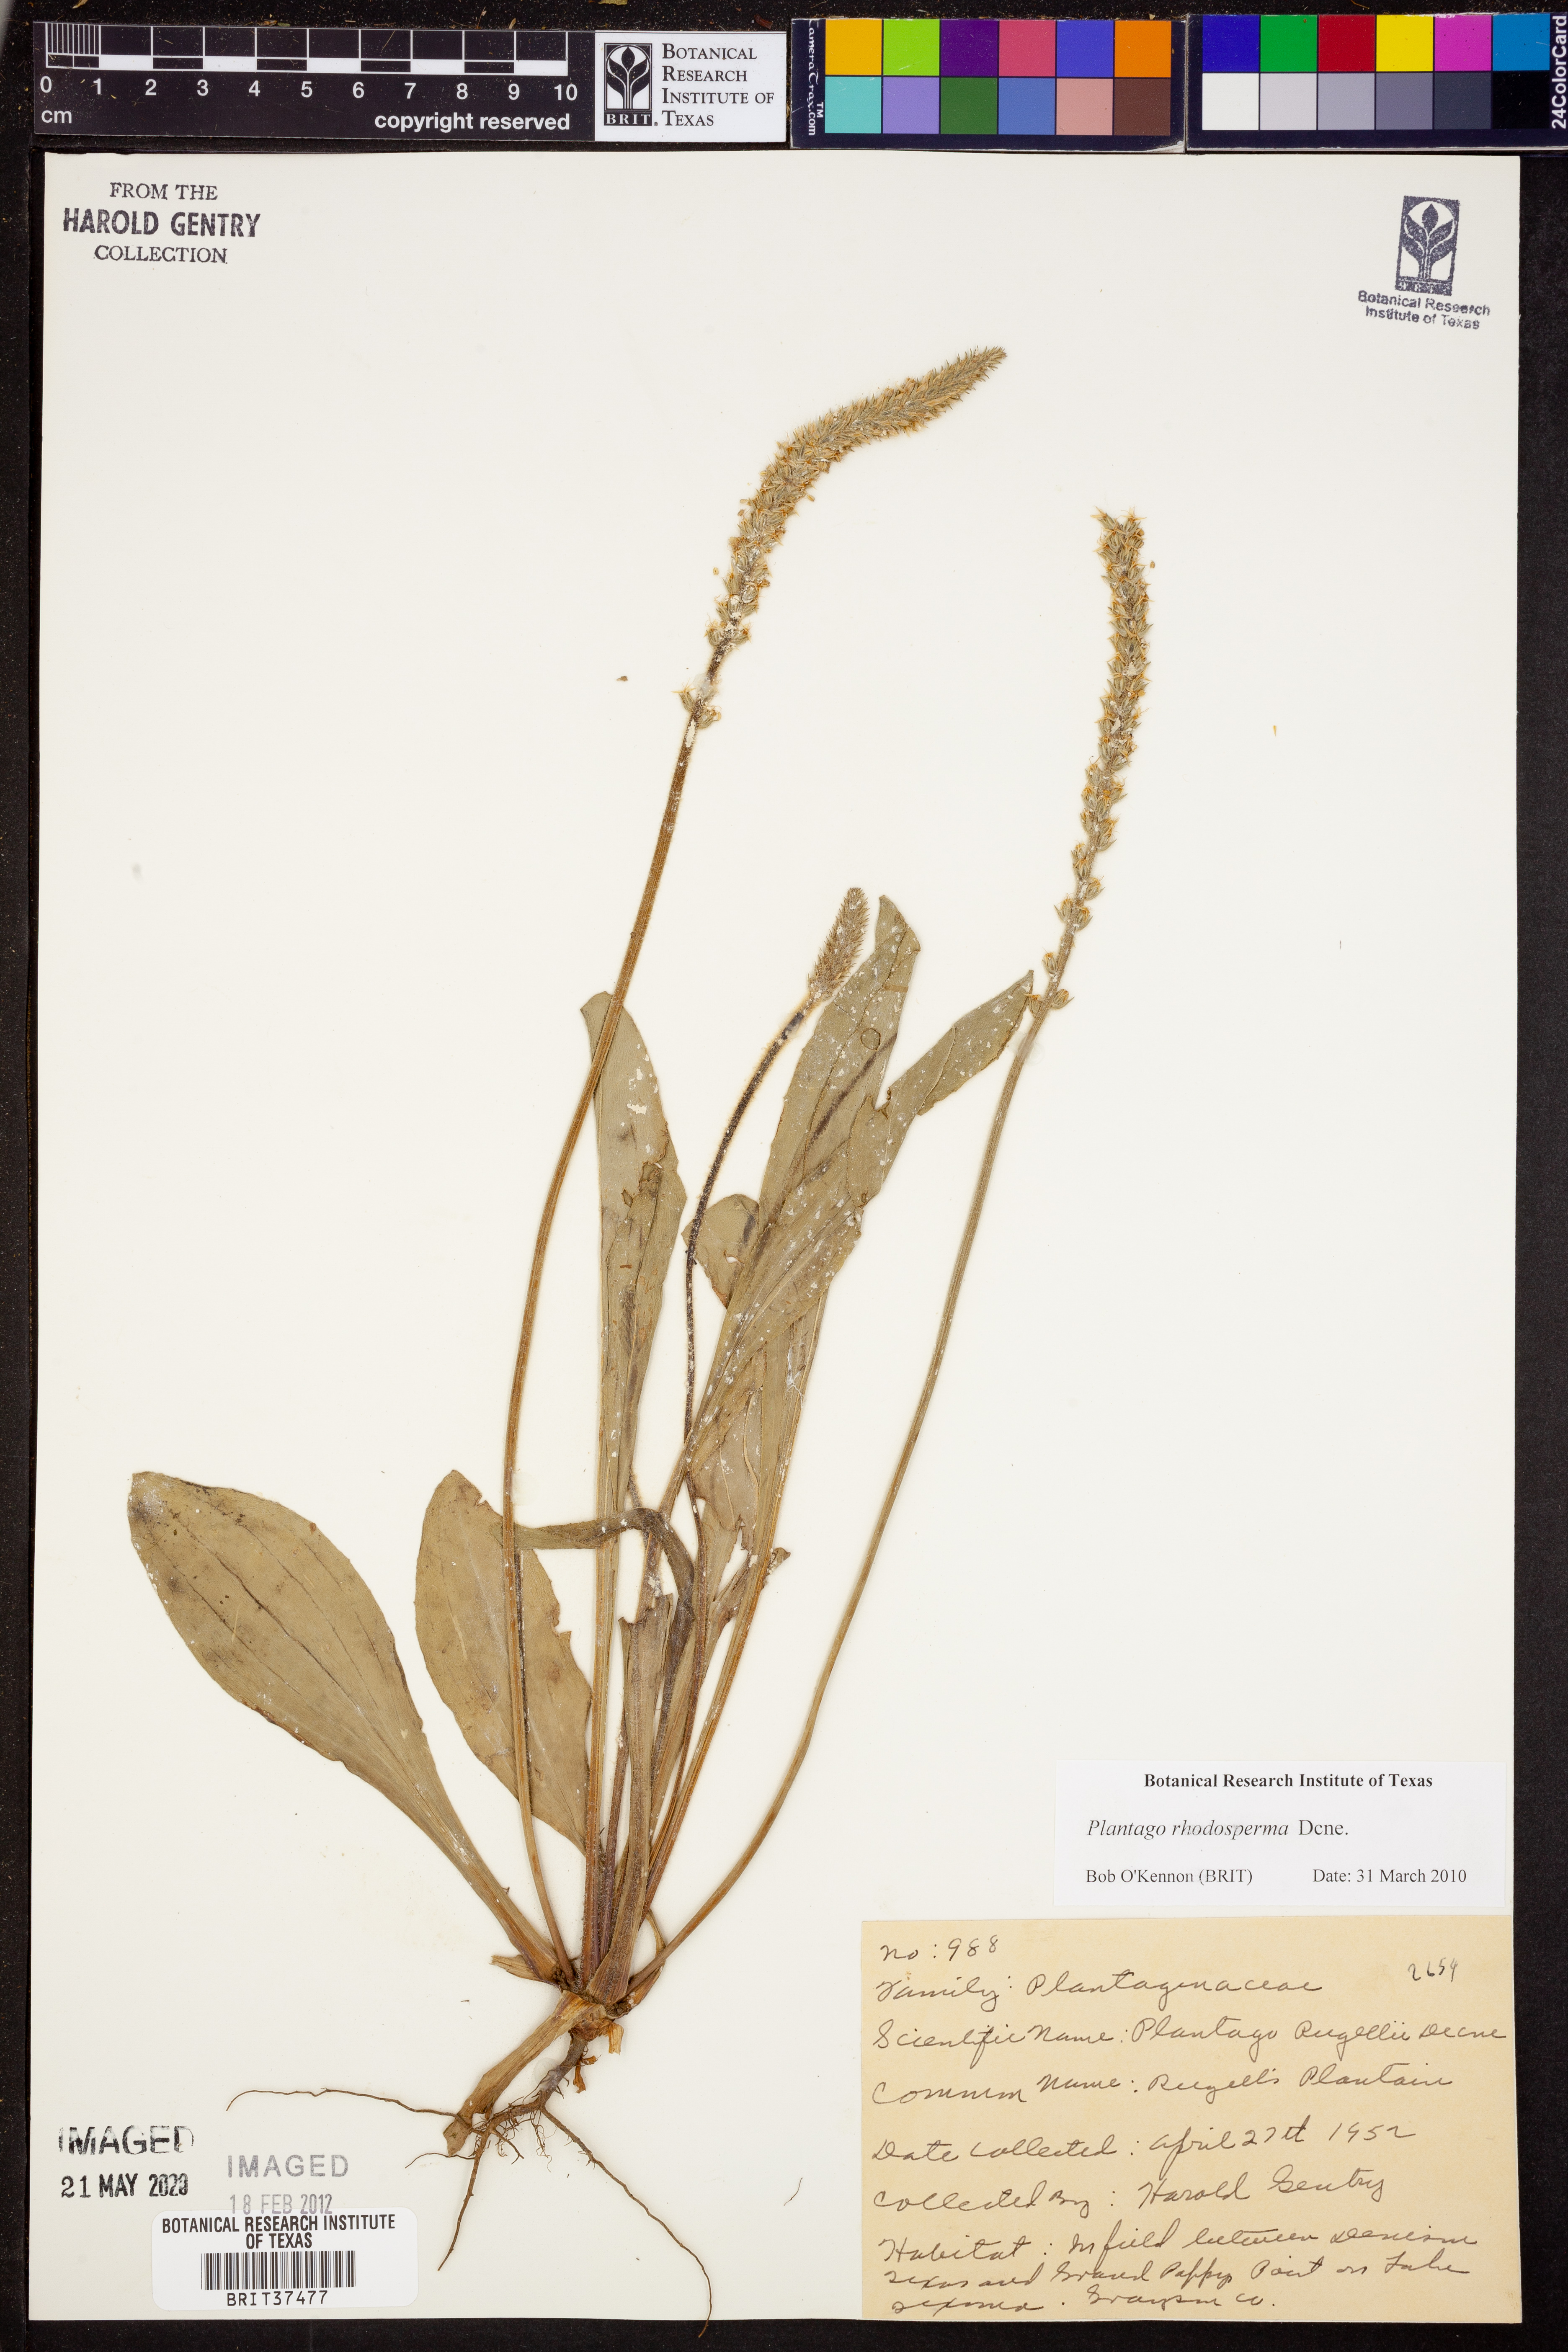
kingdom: Plantae
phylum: Tracheophyta
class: Magnoliopsida
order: Lamiales
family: Plantaginaceae
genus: Plantago
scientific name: Plantago rhodosperma
